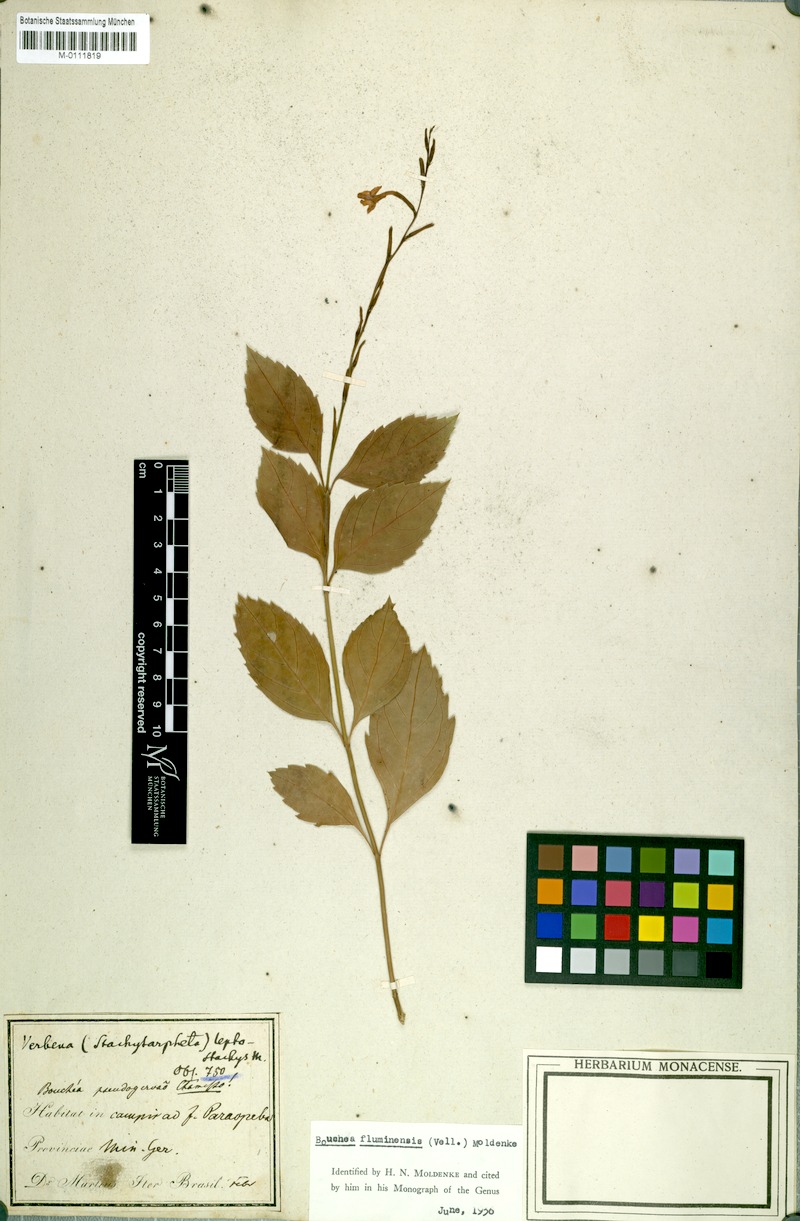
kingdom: Plantae
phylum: Tracheophyta
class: Magnoliopsida
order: Lamiales
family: Verbenaceae
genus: Bouchea
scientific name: Bouchea pseudogervao
